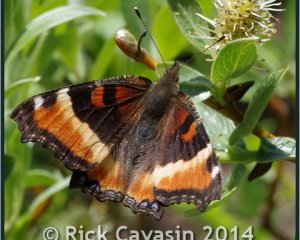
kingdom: Animalia
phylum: Arthropoda
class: Insecta
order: Lepidoptera
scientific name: Lepidoptera
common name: Butterflies
